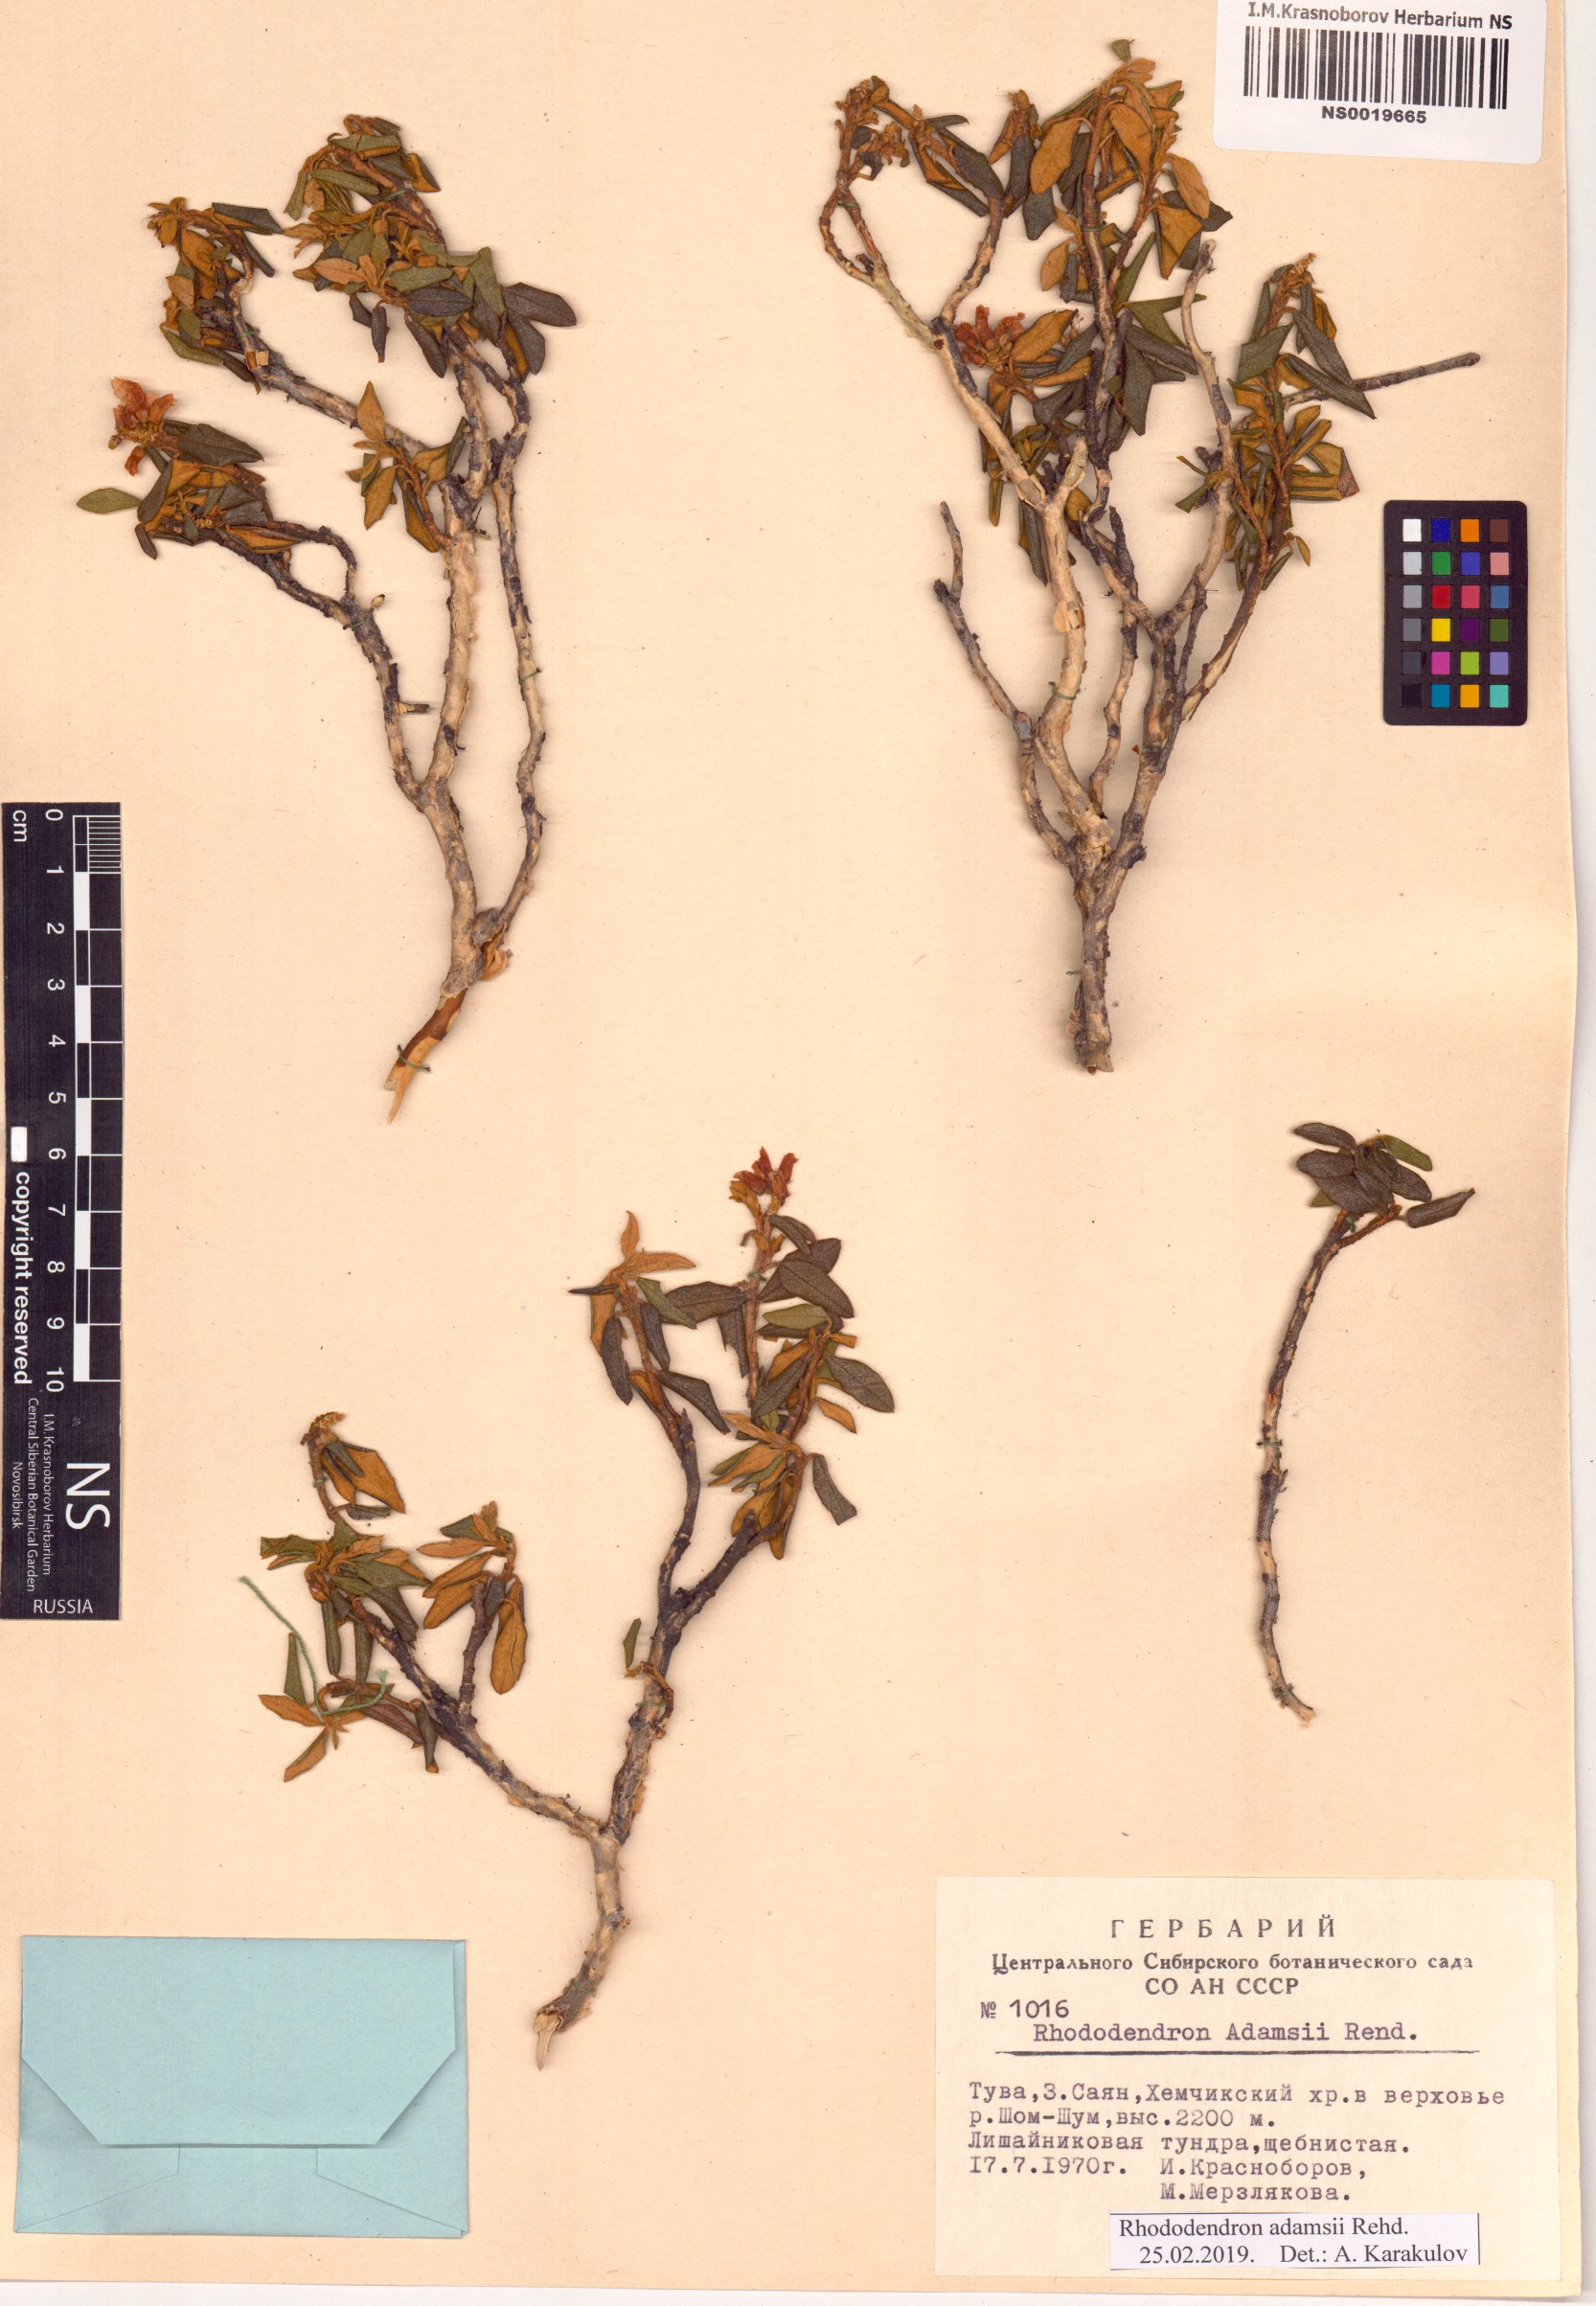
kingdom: Plantae
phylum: Tracheophyta
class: Magnoliopsida
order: Ericales
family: Ericaceae
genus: Rhododendron
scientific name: Rhododendron adamsii
